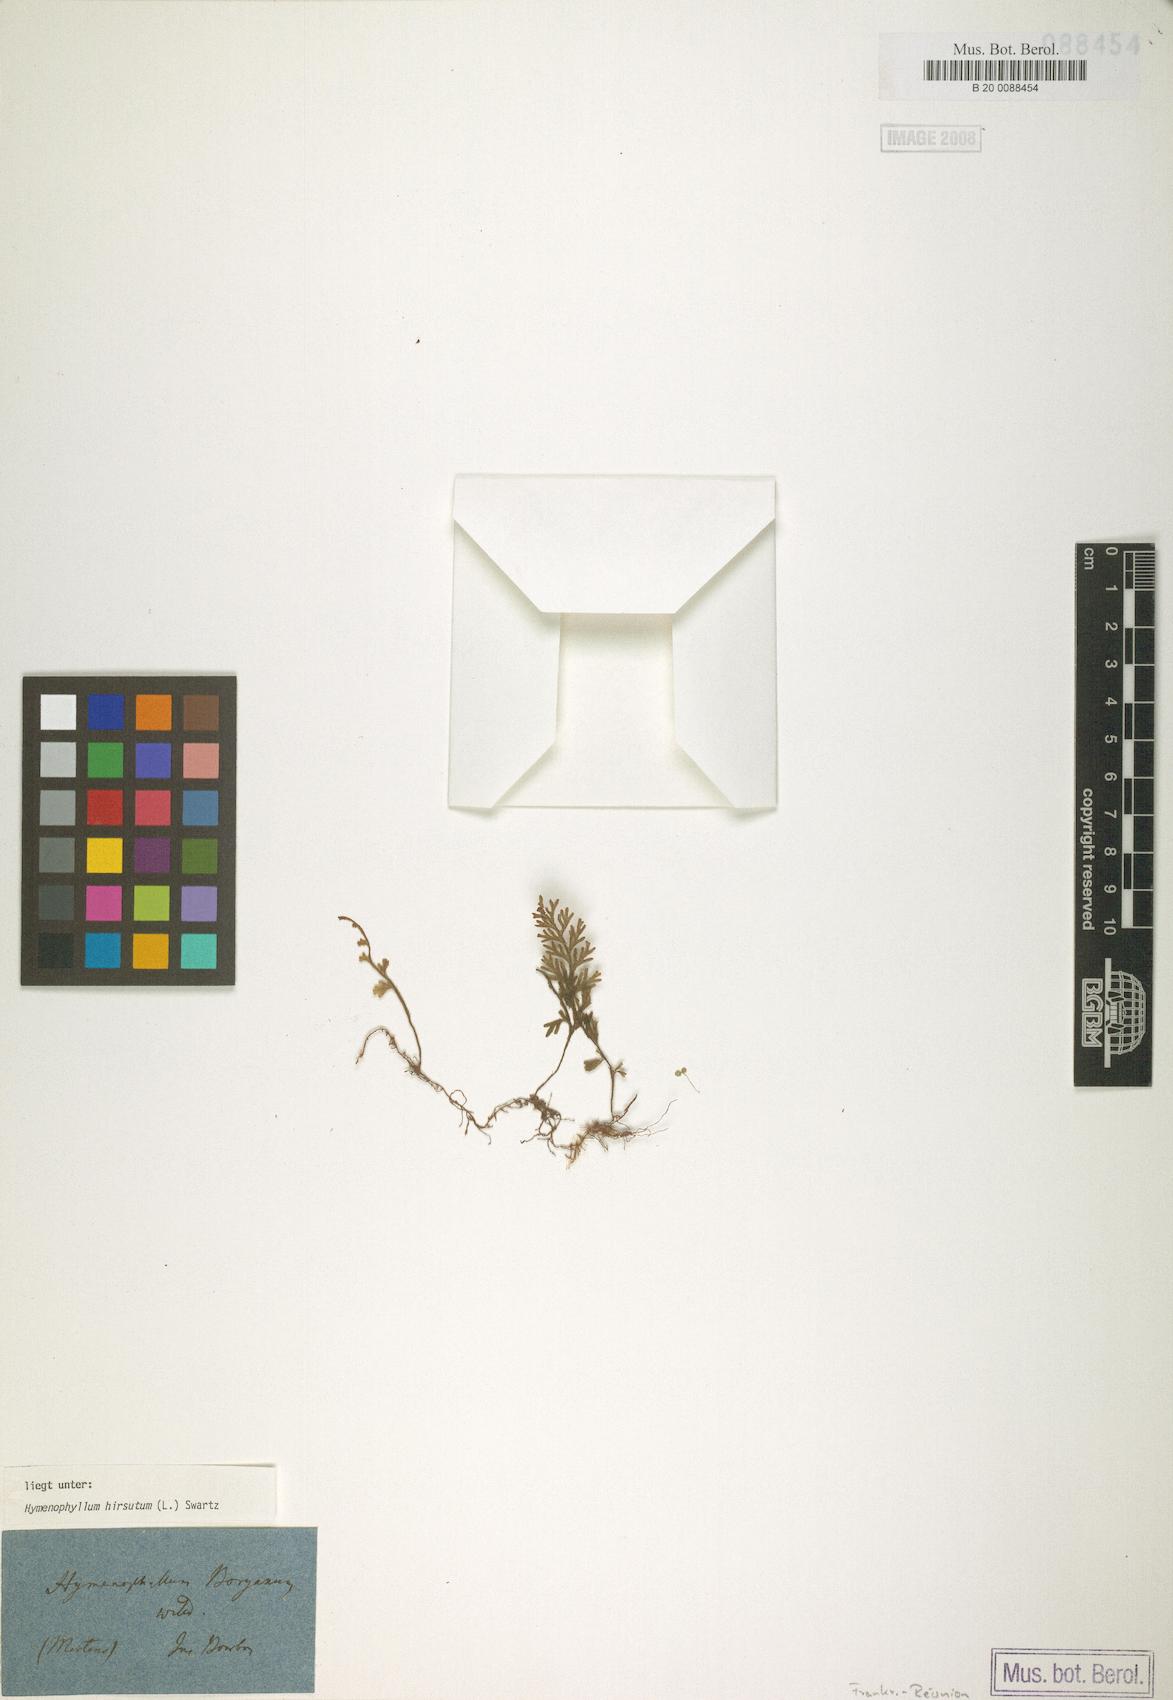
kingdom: Plantae
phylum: Tracheophyta
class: Polypodiopsida
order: Hymenophyllales
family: Hymenophyllaceae
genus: Hymenophyllum
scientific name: Hymenophyllum hirsutum
